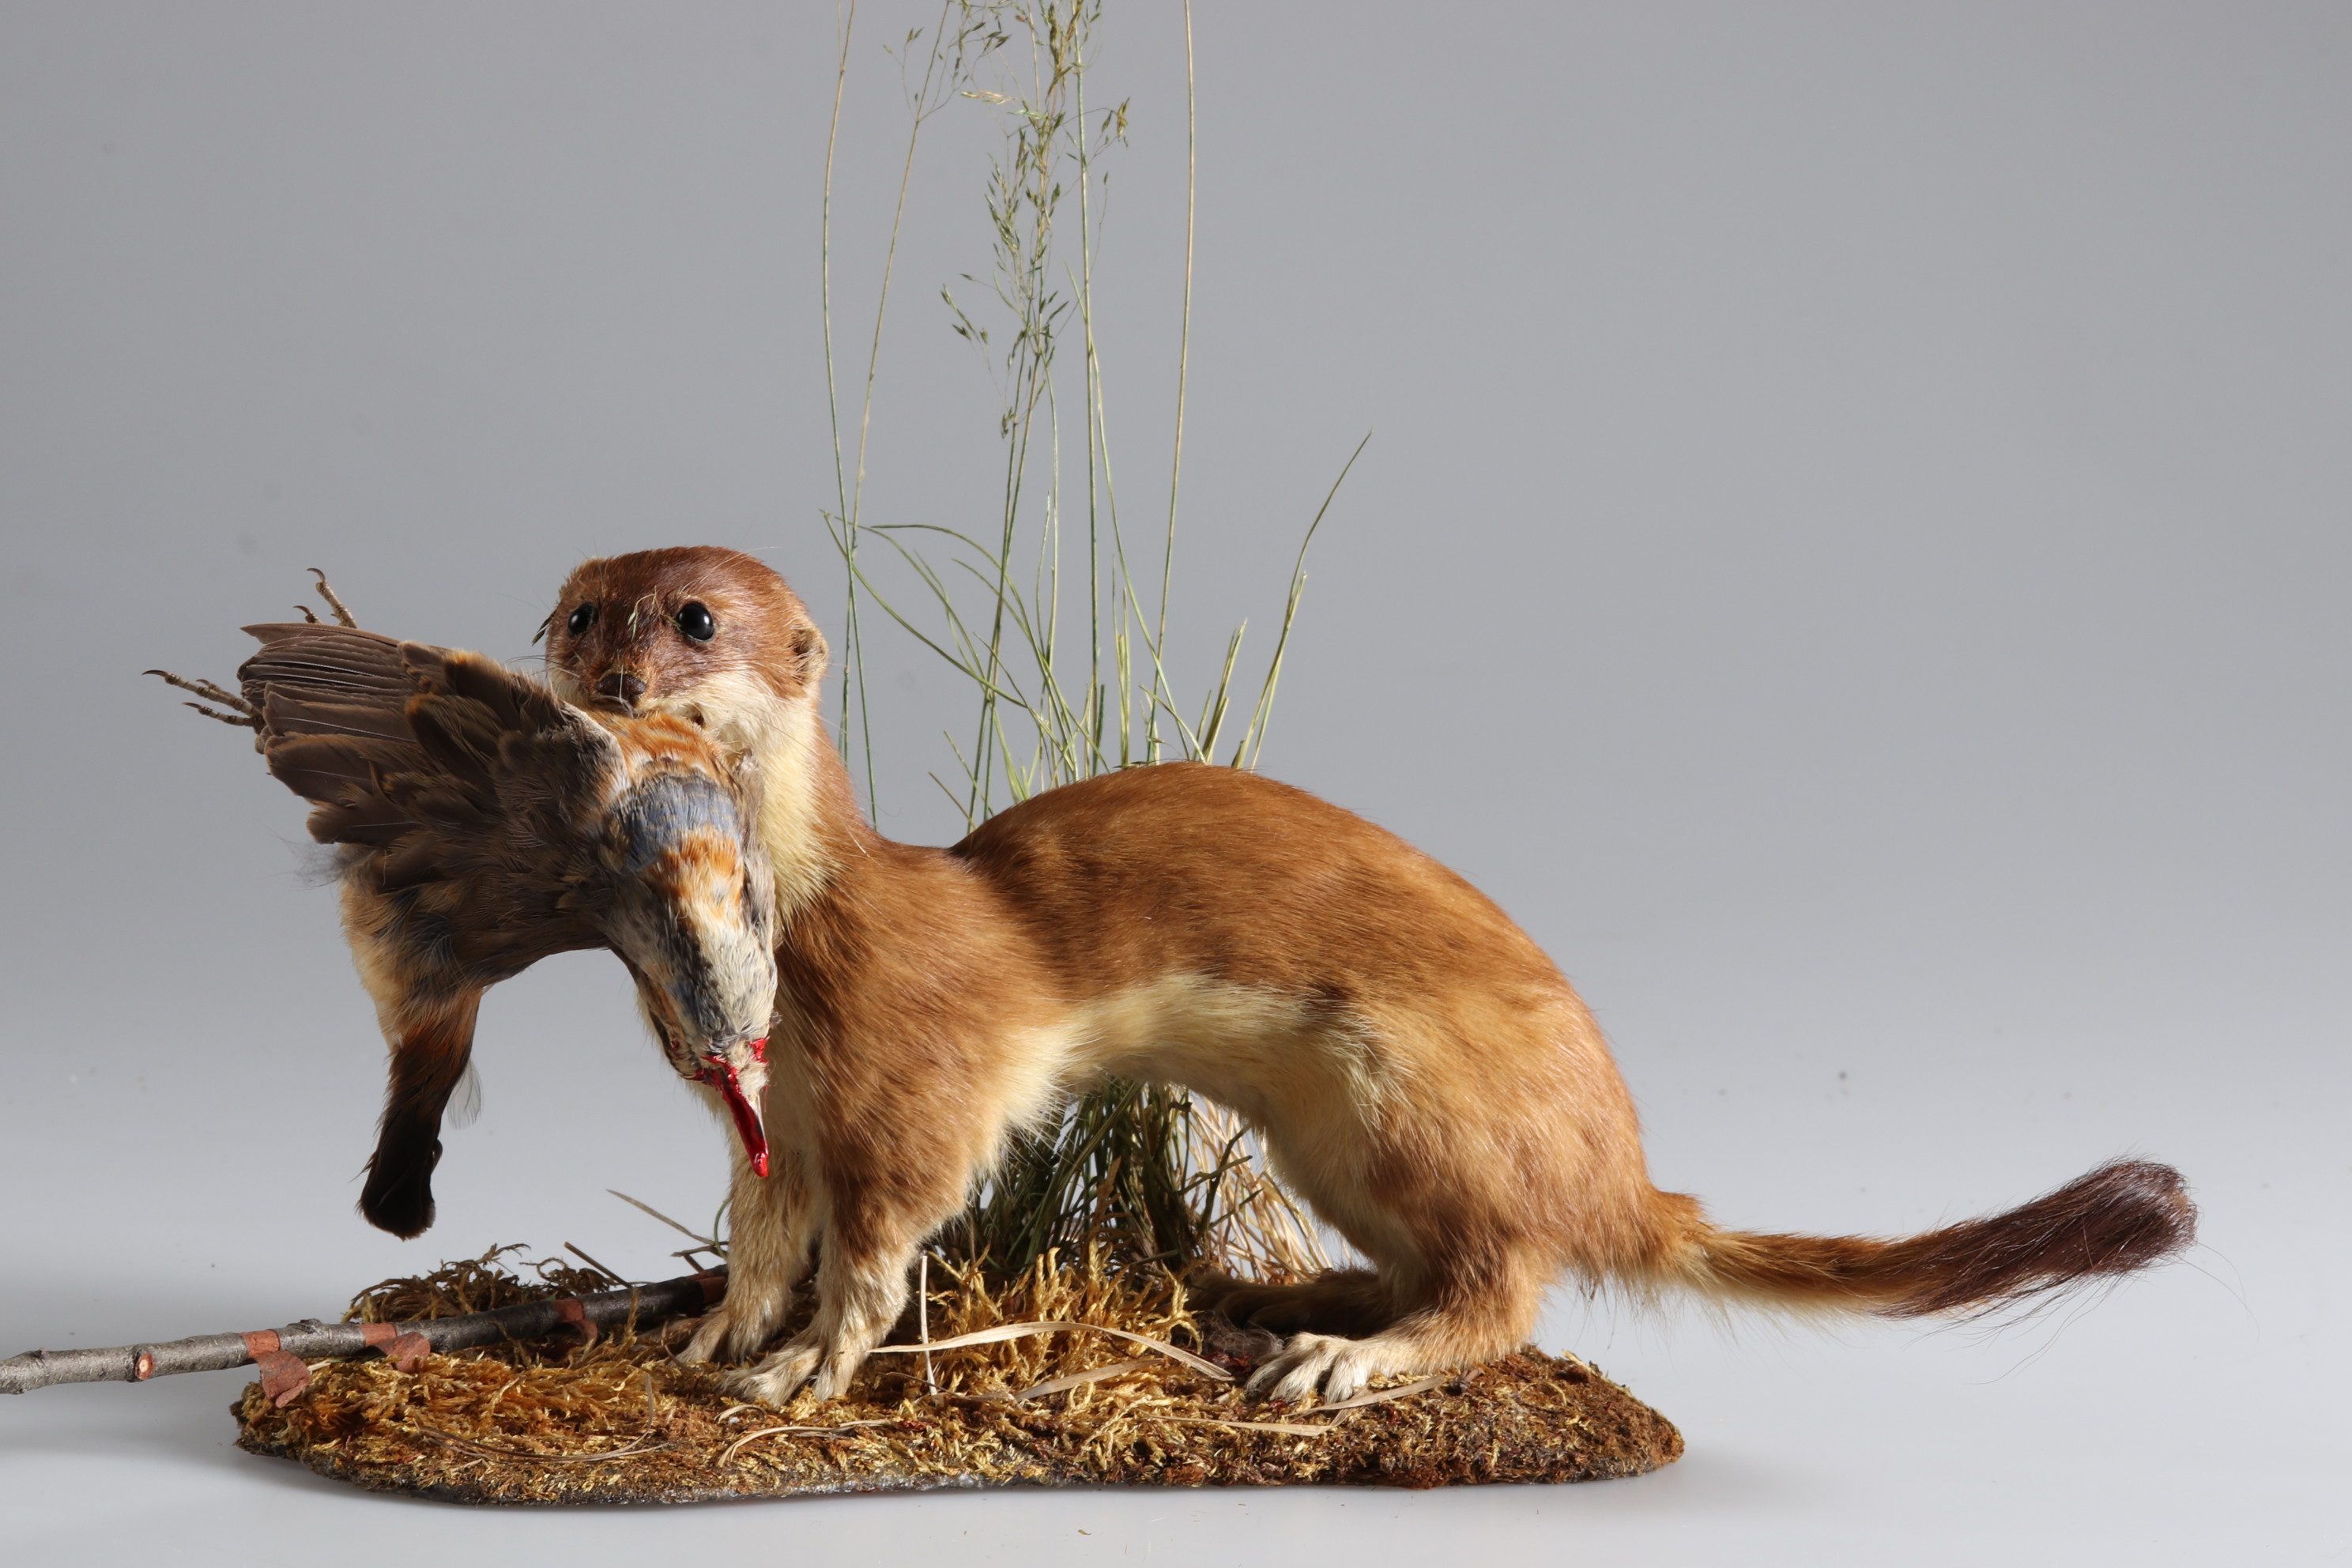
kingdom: Animalia
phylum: Chordata
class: Mammalia
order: Carnivora
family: Mustelidae
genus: Mustela
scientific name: Mustela erminea
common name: Stoat
